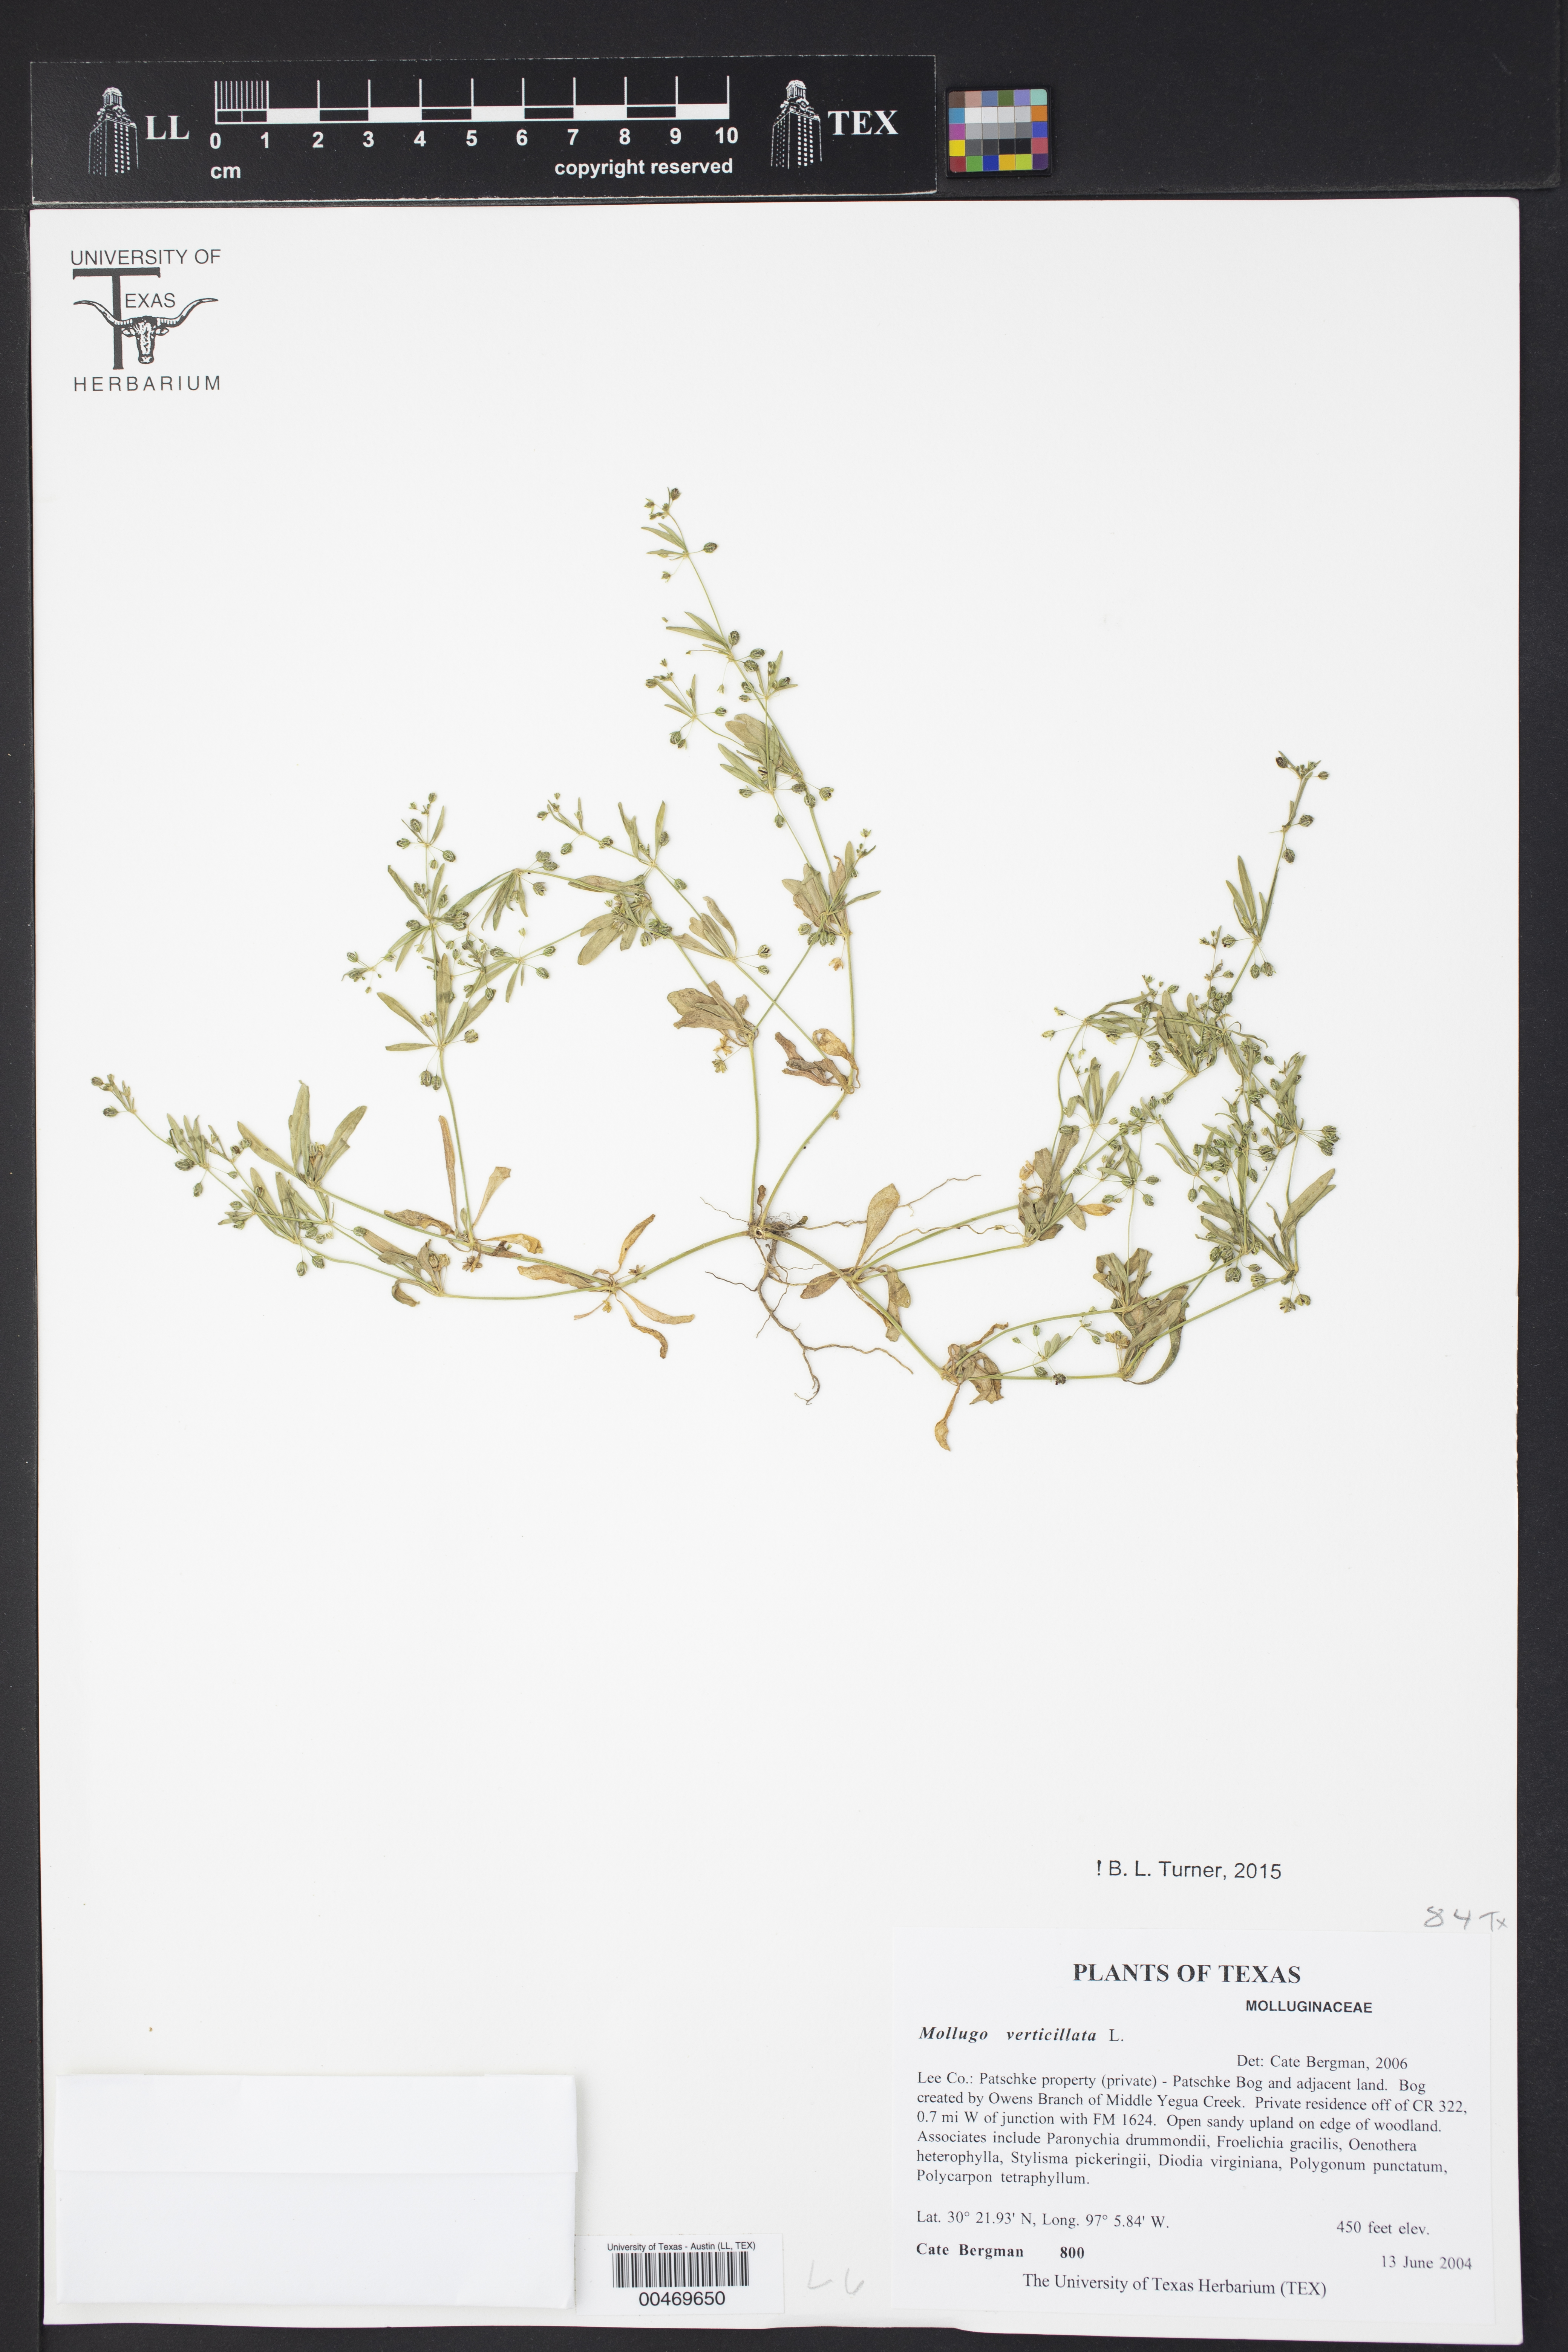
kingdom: Plantae
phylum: Tracheophyta
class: Magnoliopsida
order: Caryophyllales
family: Molluginaceae
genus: Mollugo
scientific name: Mollugo verticillata
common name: Green carpetweed
